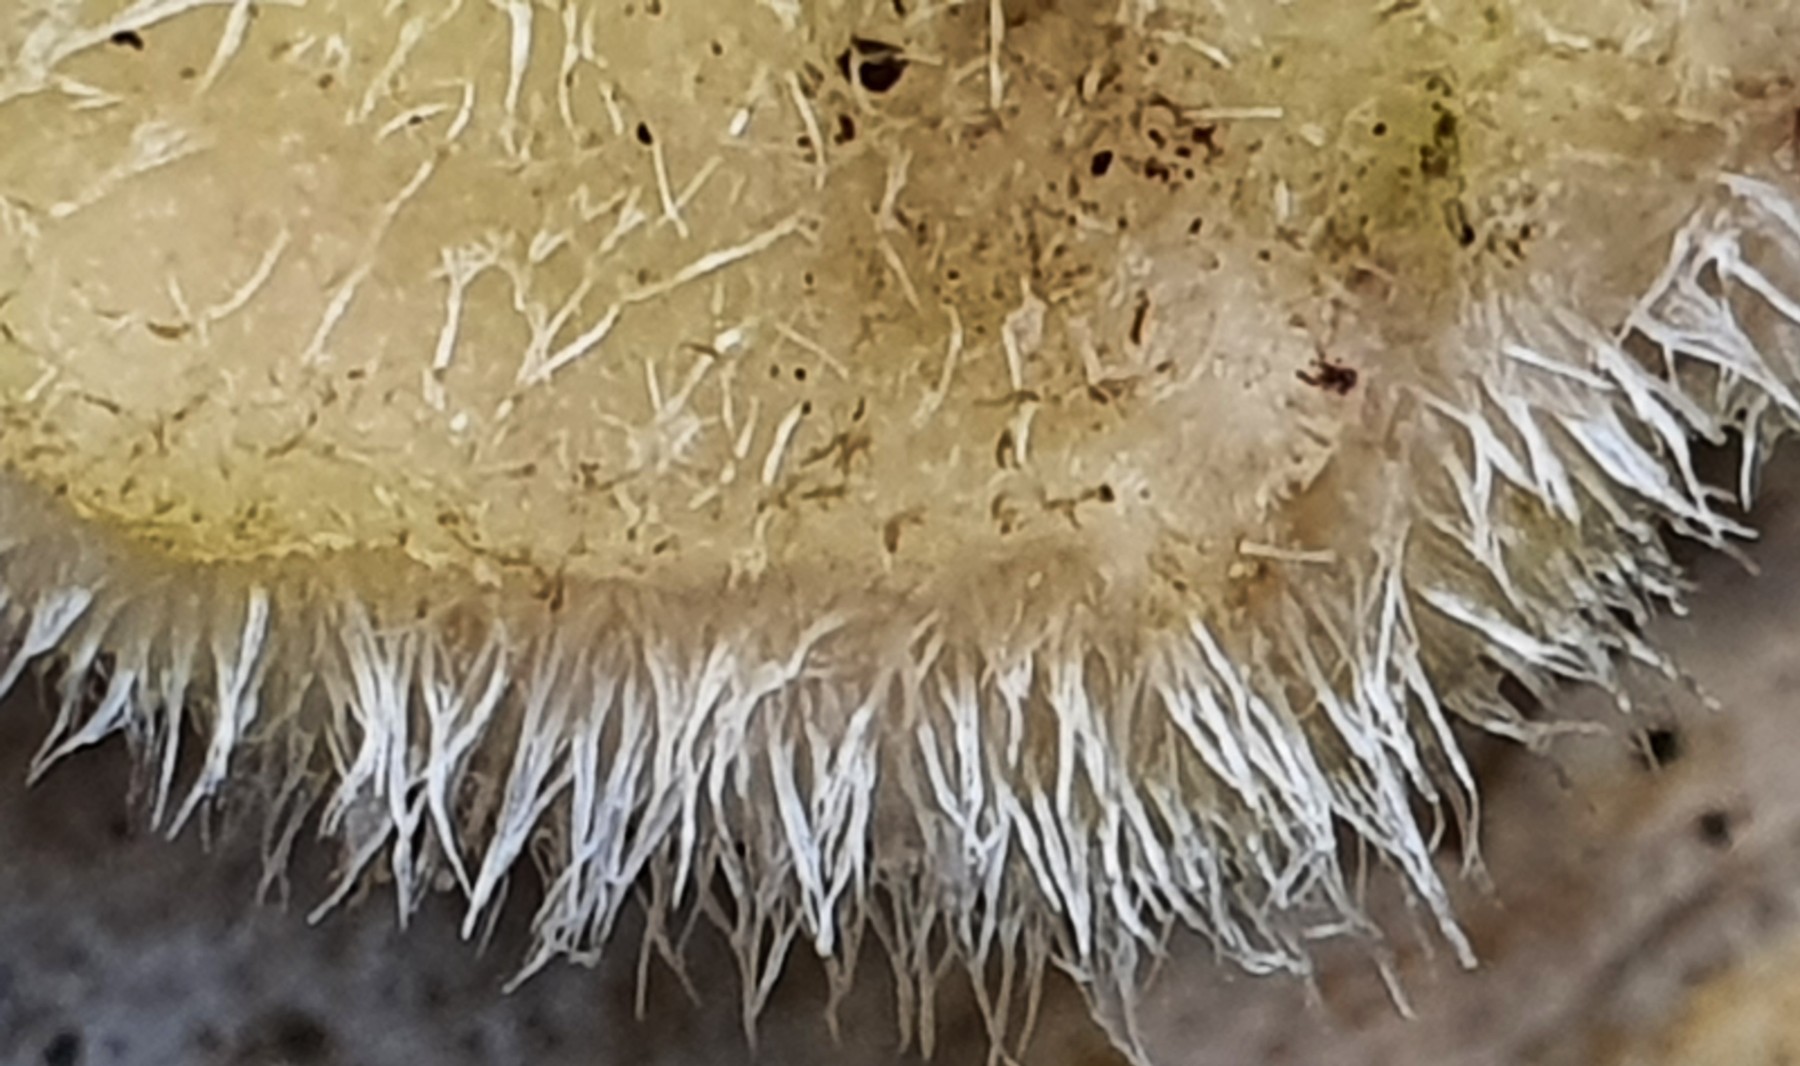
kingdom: Fungi
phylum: Basidiomycota
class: Agaricomycetes
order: Polyporales
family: Polyporaceae
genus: Trametes
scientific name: Trametes hirsuta
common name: håret læderporesvamp
